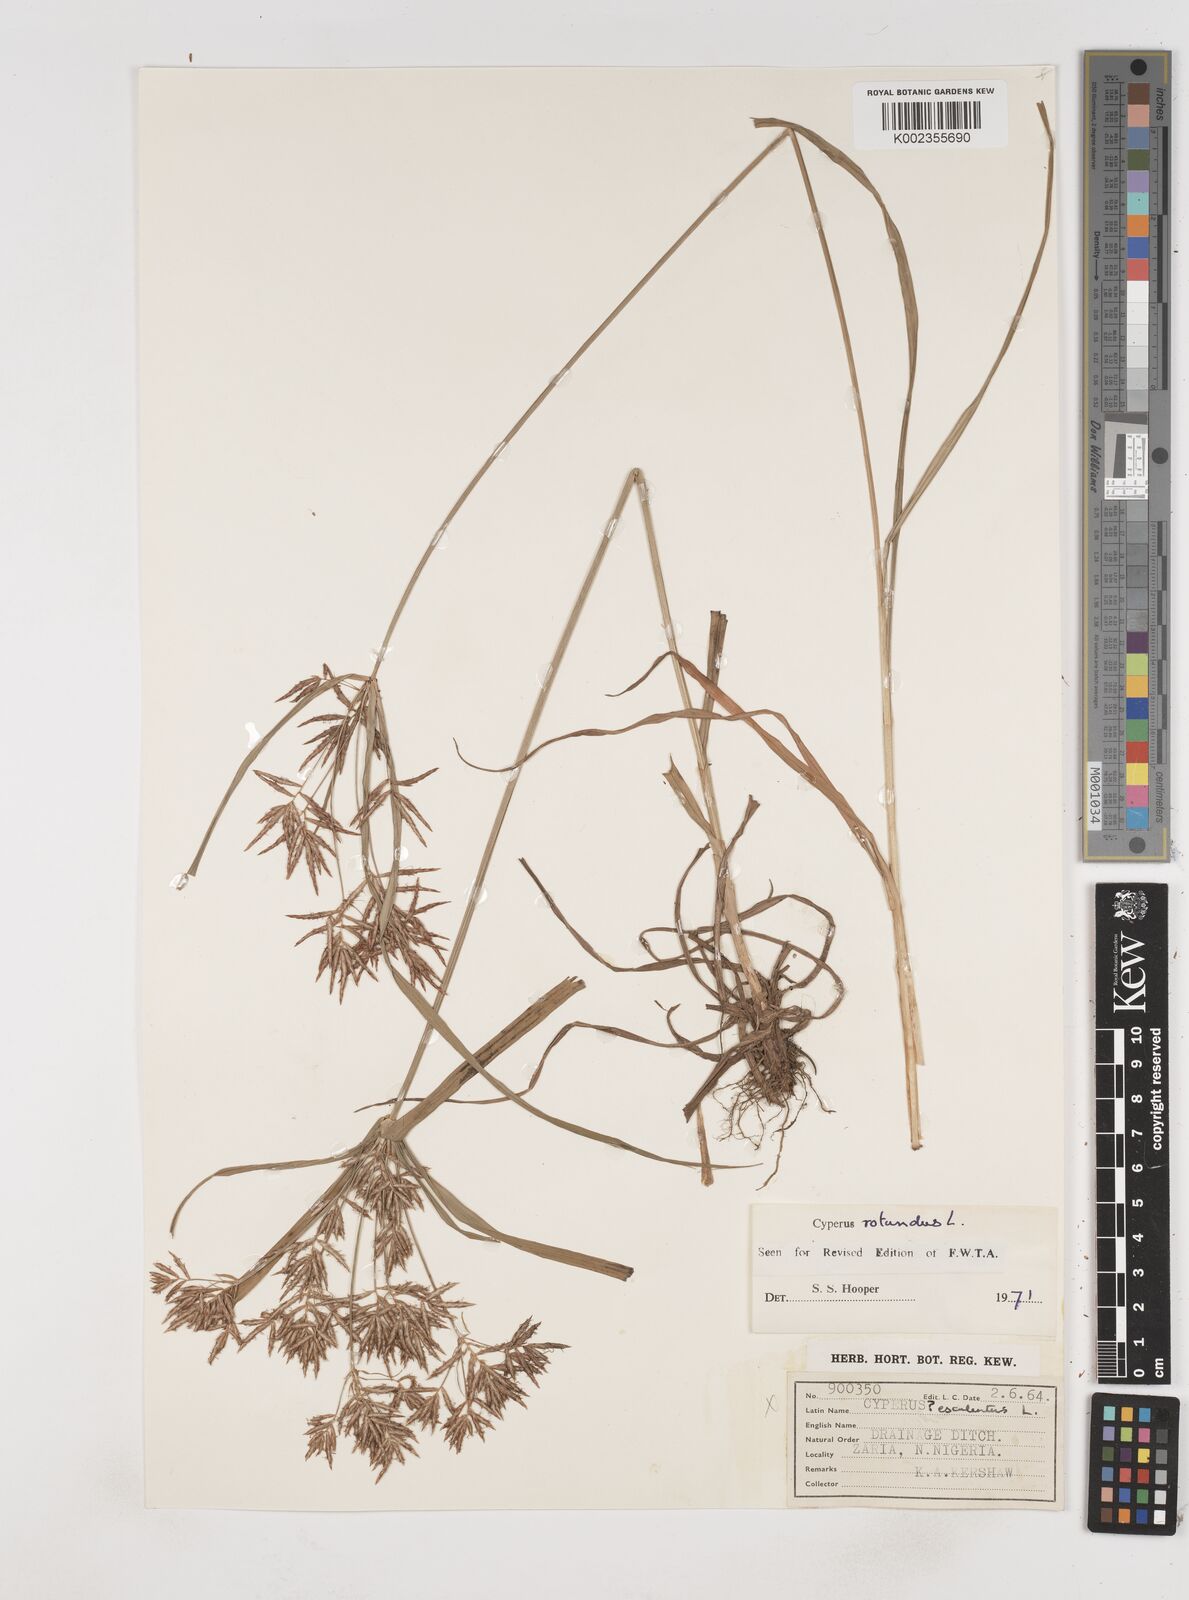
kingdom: Plantae
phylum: Tracheophyta
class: Liliopsida
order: Poales
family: Cyperaceae
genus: Cyperus
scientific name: Cyperus tuberosus
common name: Nut grass
